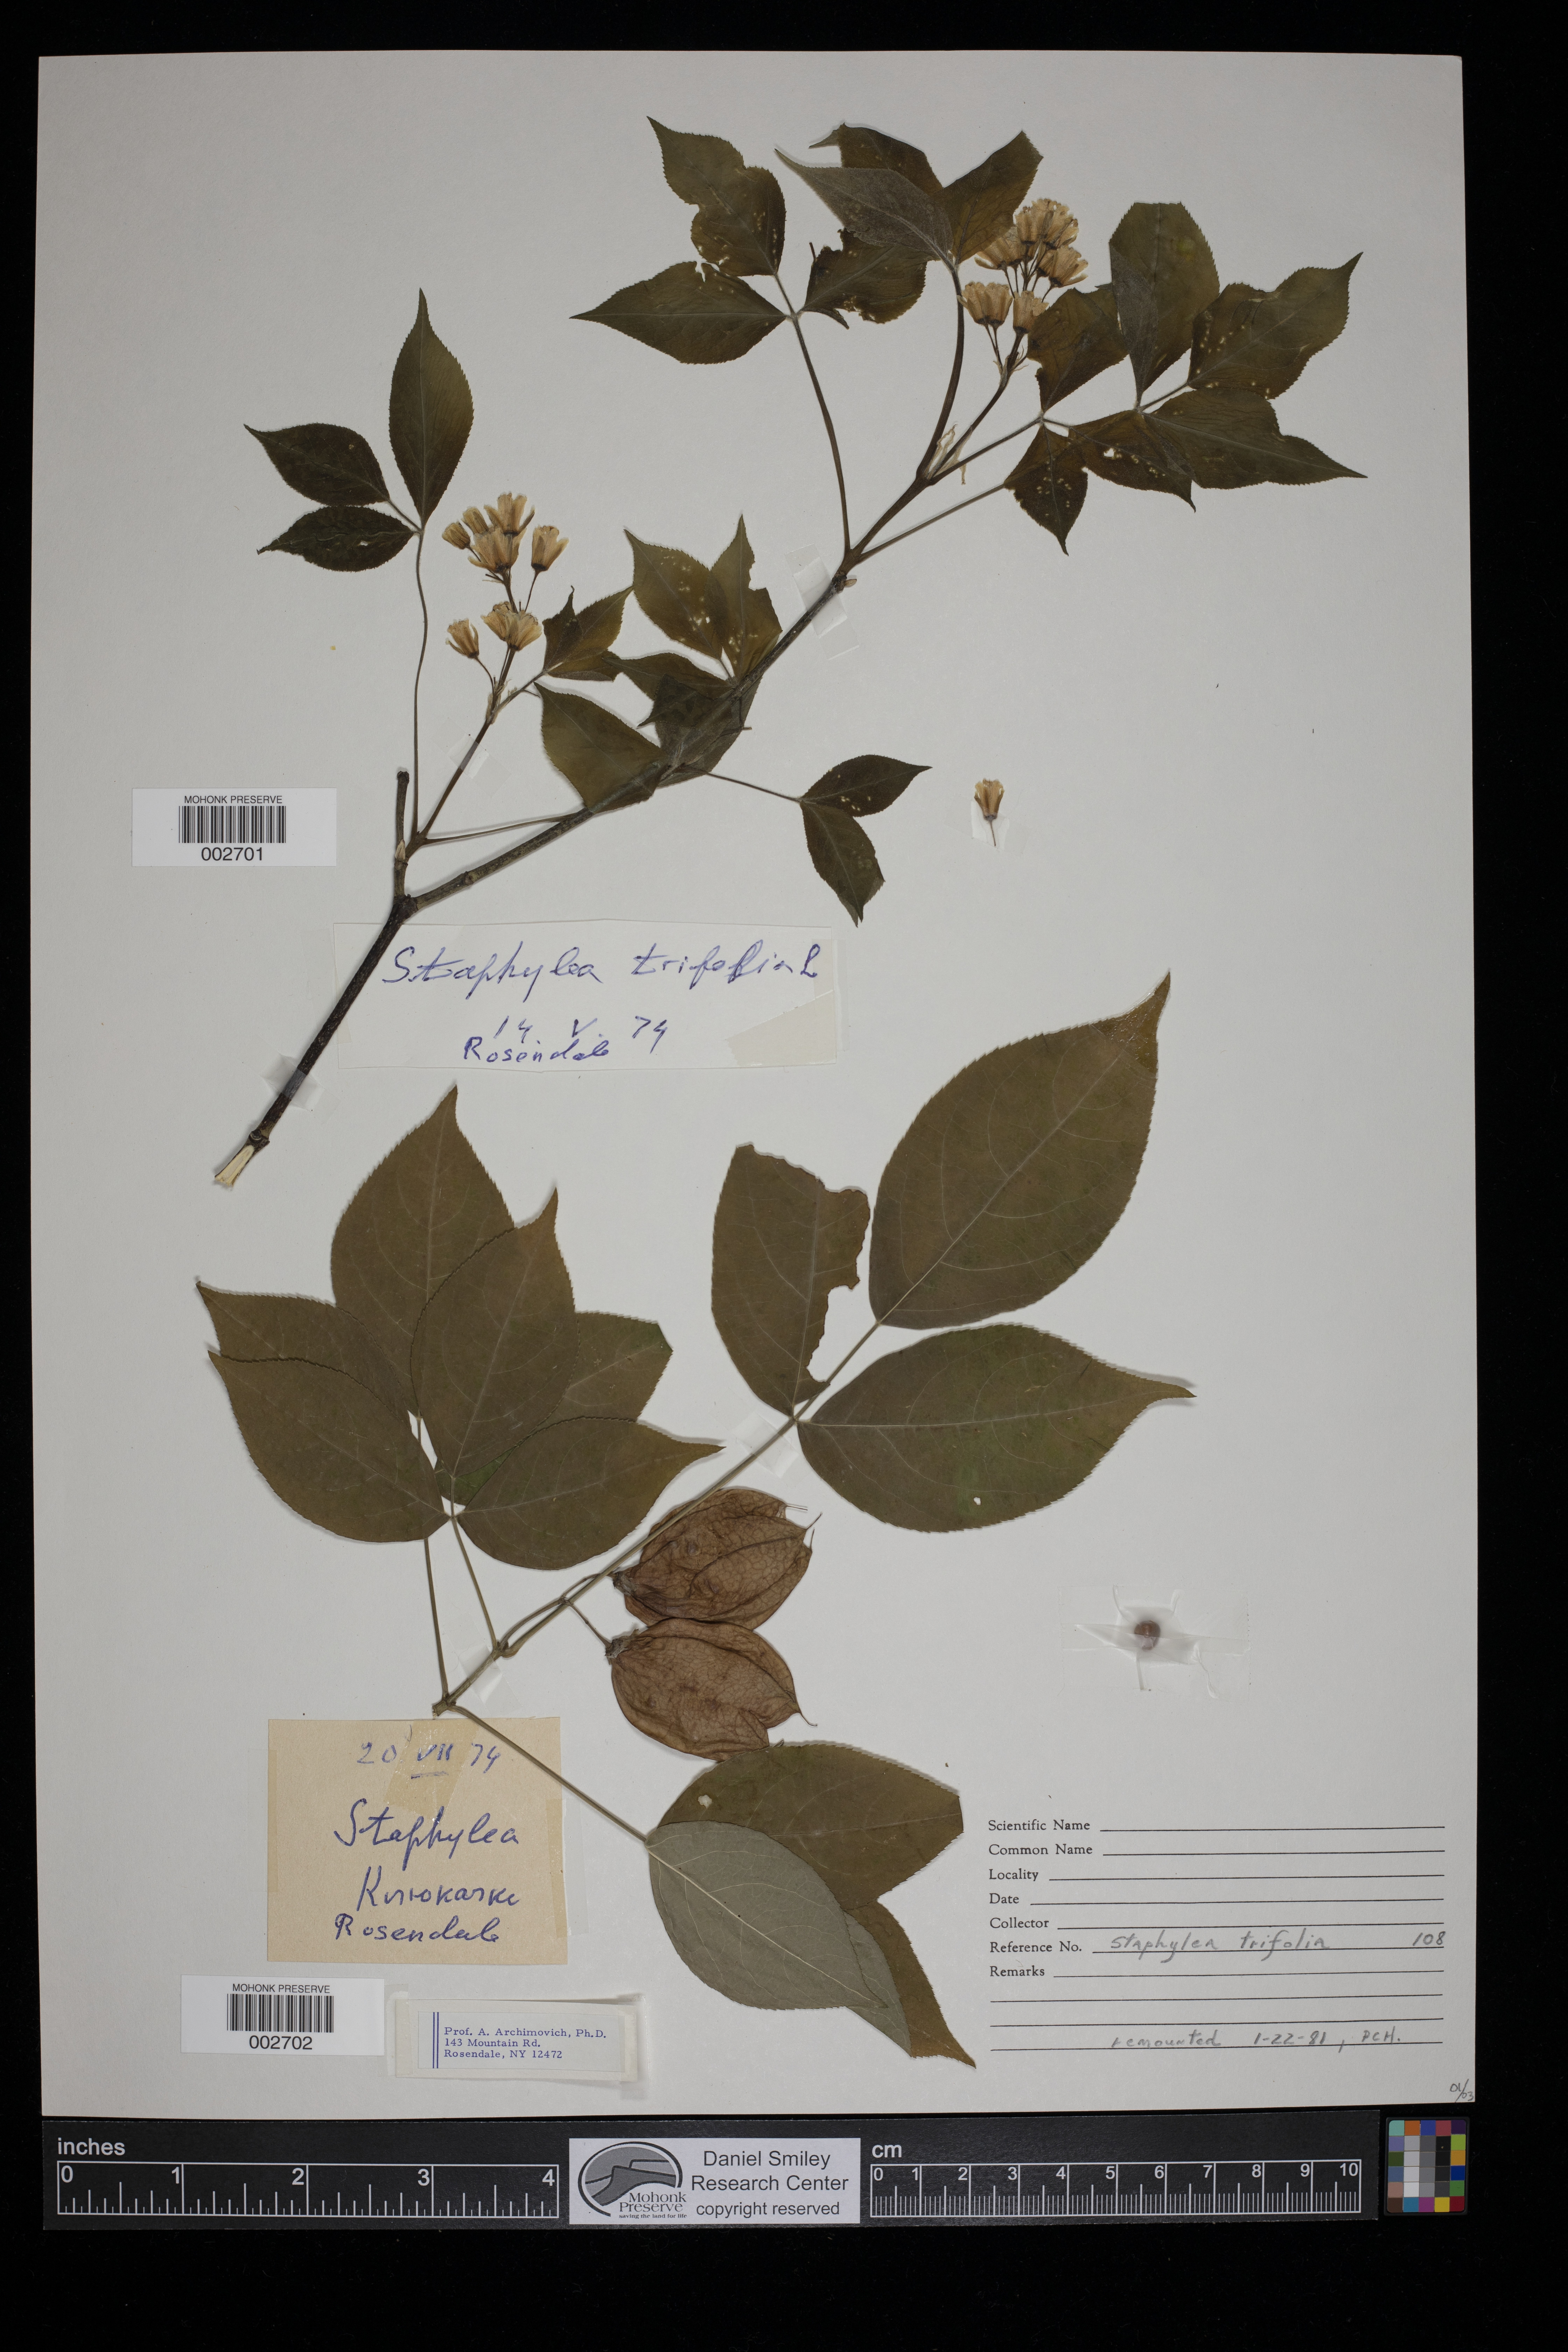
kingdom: Plantae
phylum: Tracheophyta
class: Magnoliopsida
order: Crossosomatales
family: Staphyleaceae
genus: Staphylea
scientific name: Staphylea trifolia
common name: American bladdernut
